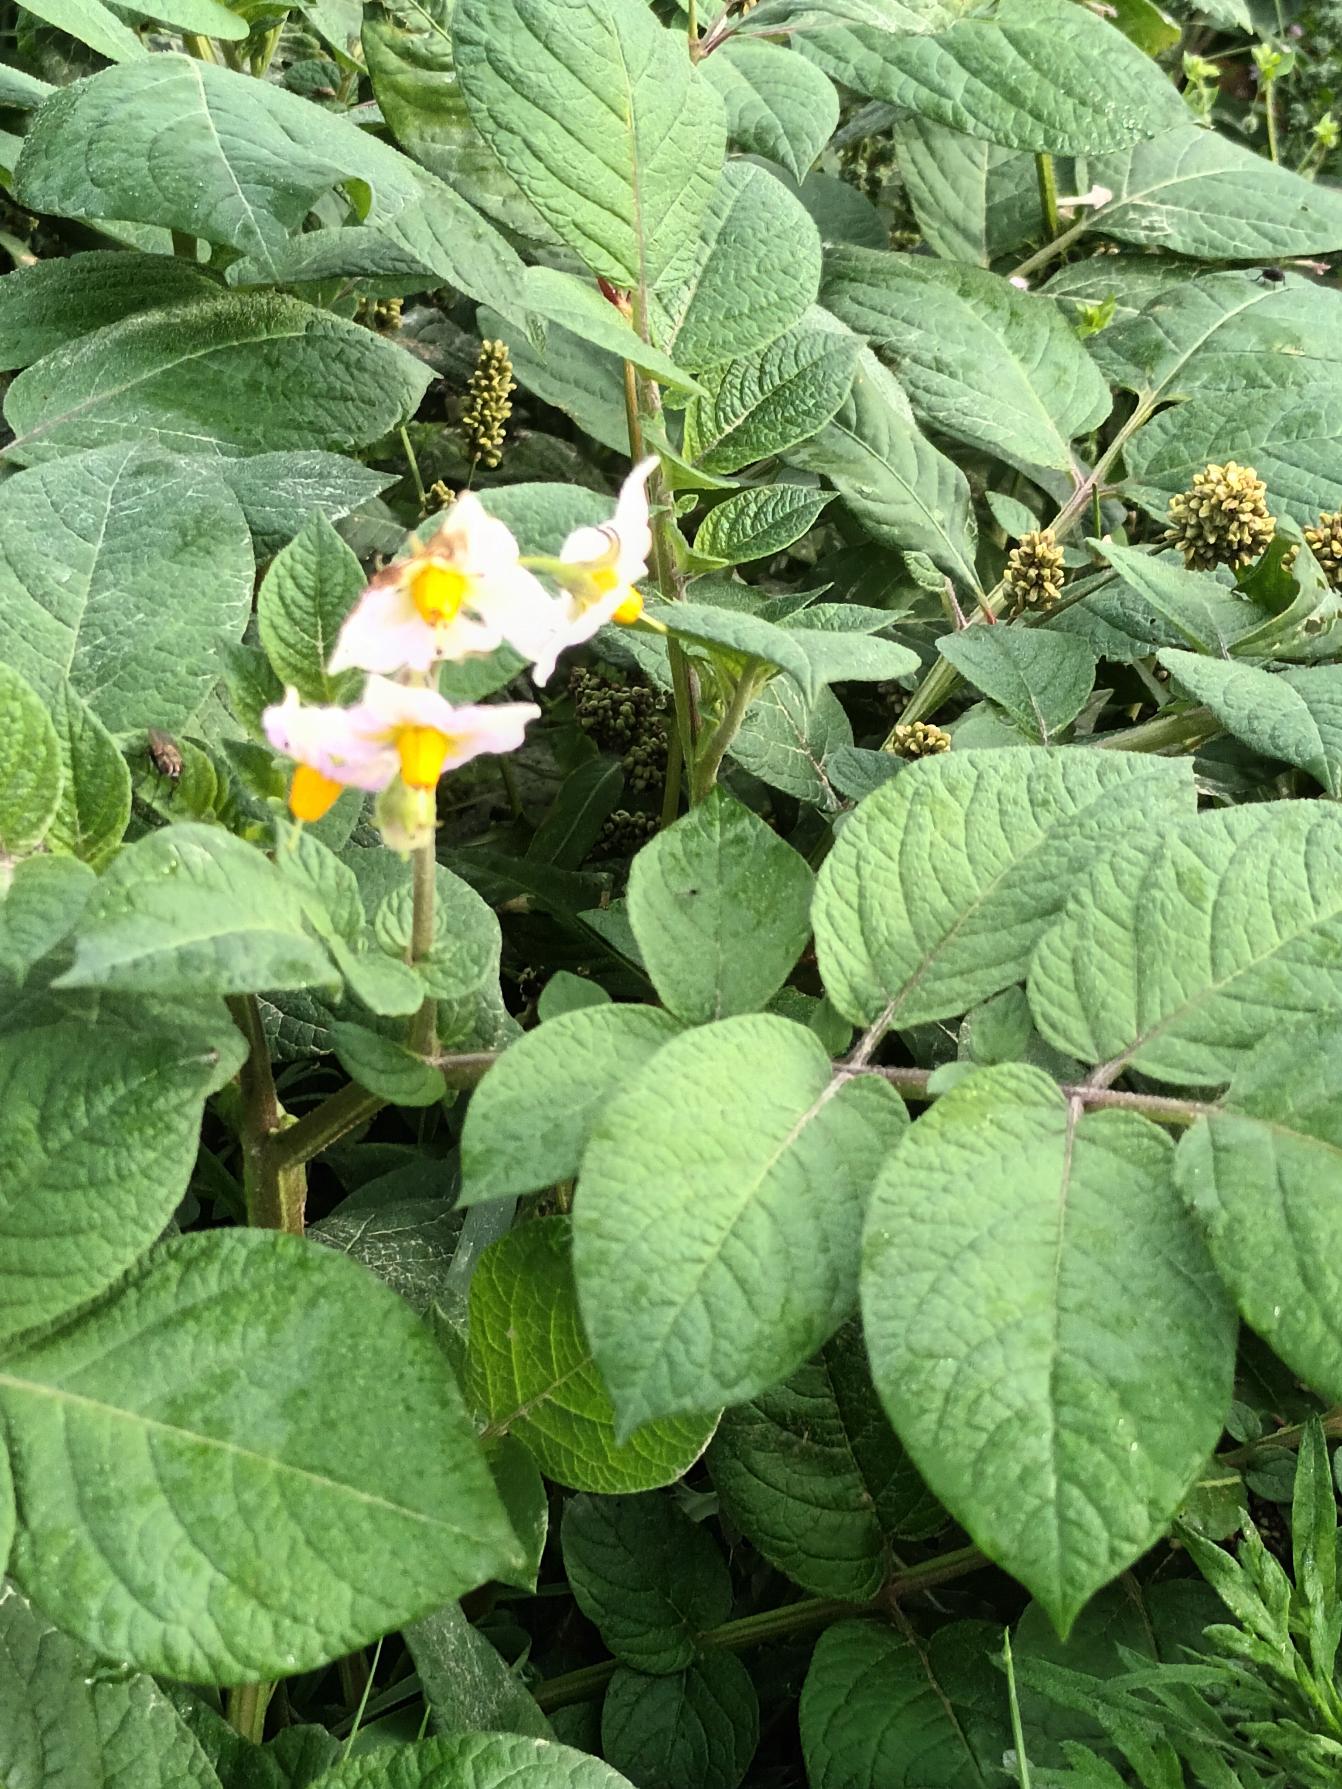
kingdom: Plantae
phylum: Tracheophyta
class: Magnoliopsida
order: Solanales
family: Solanaceae
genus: Solanum
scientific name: Solanum tuberosum
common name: Kartoffel
